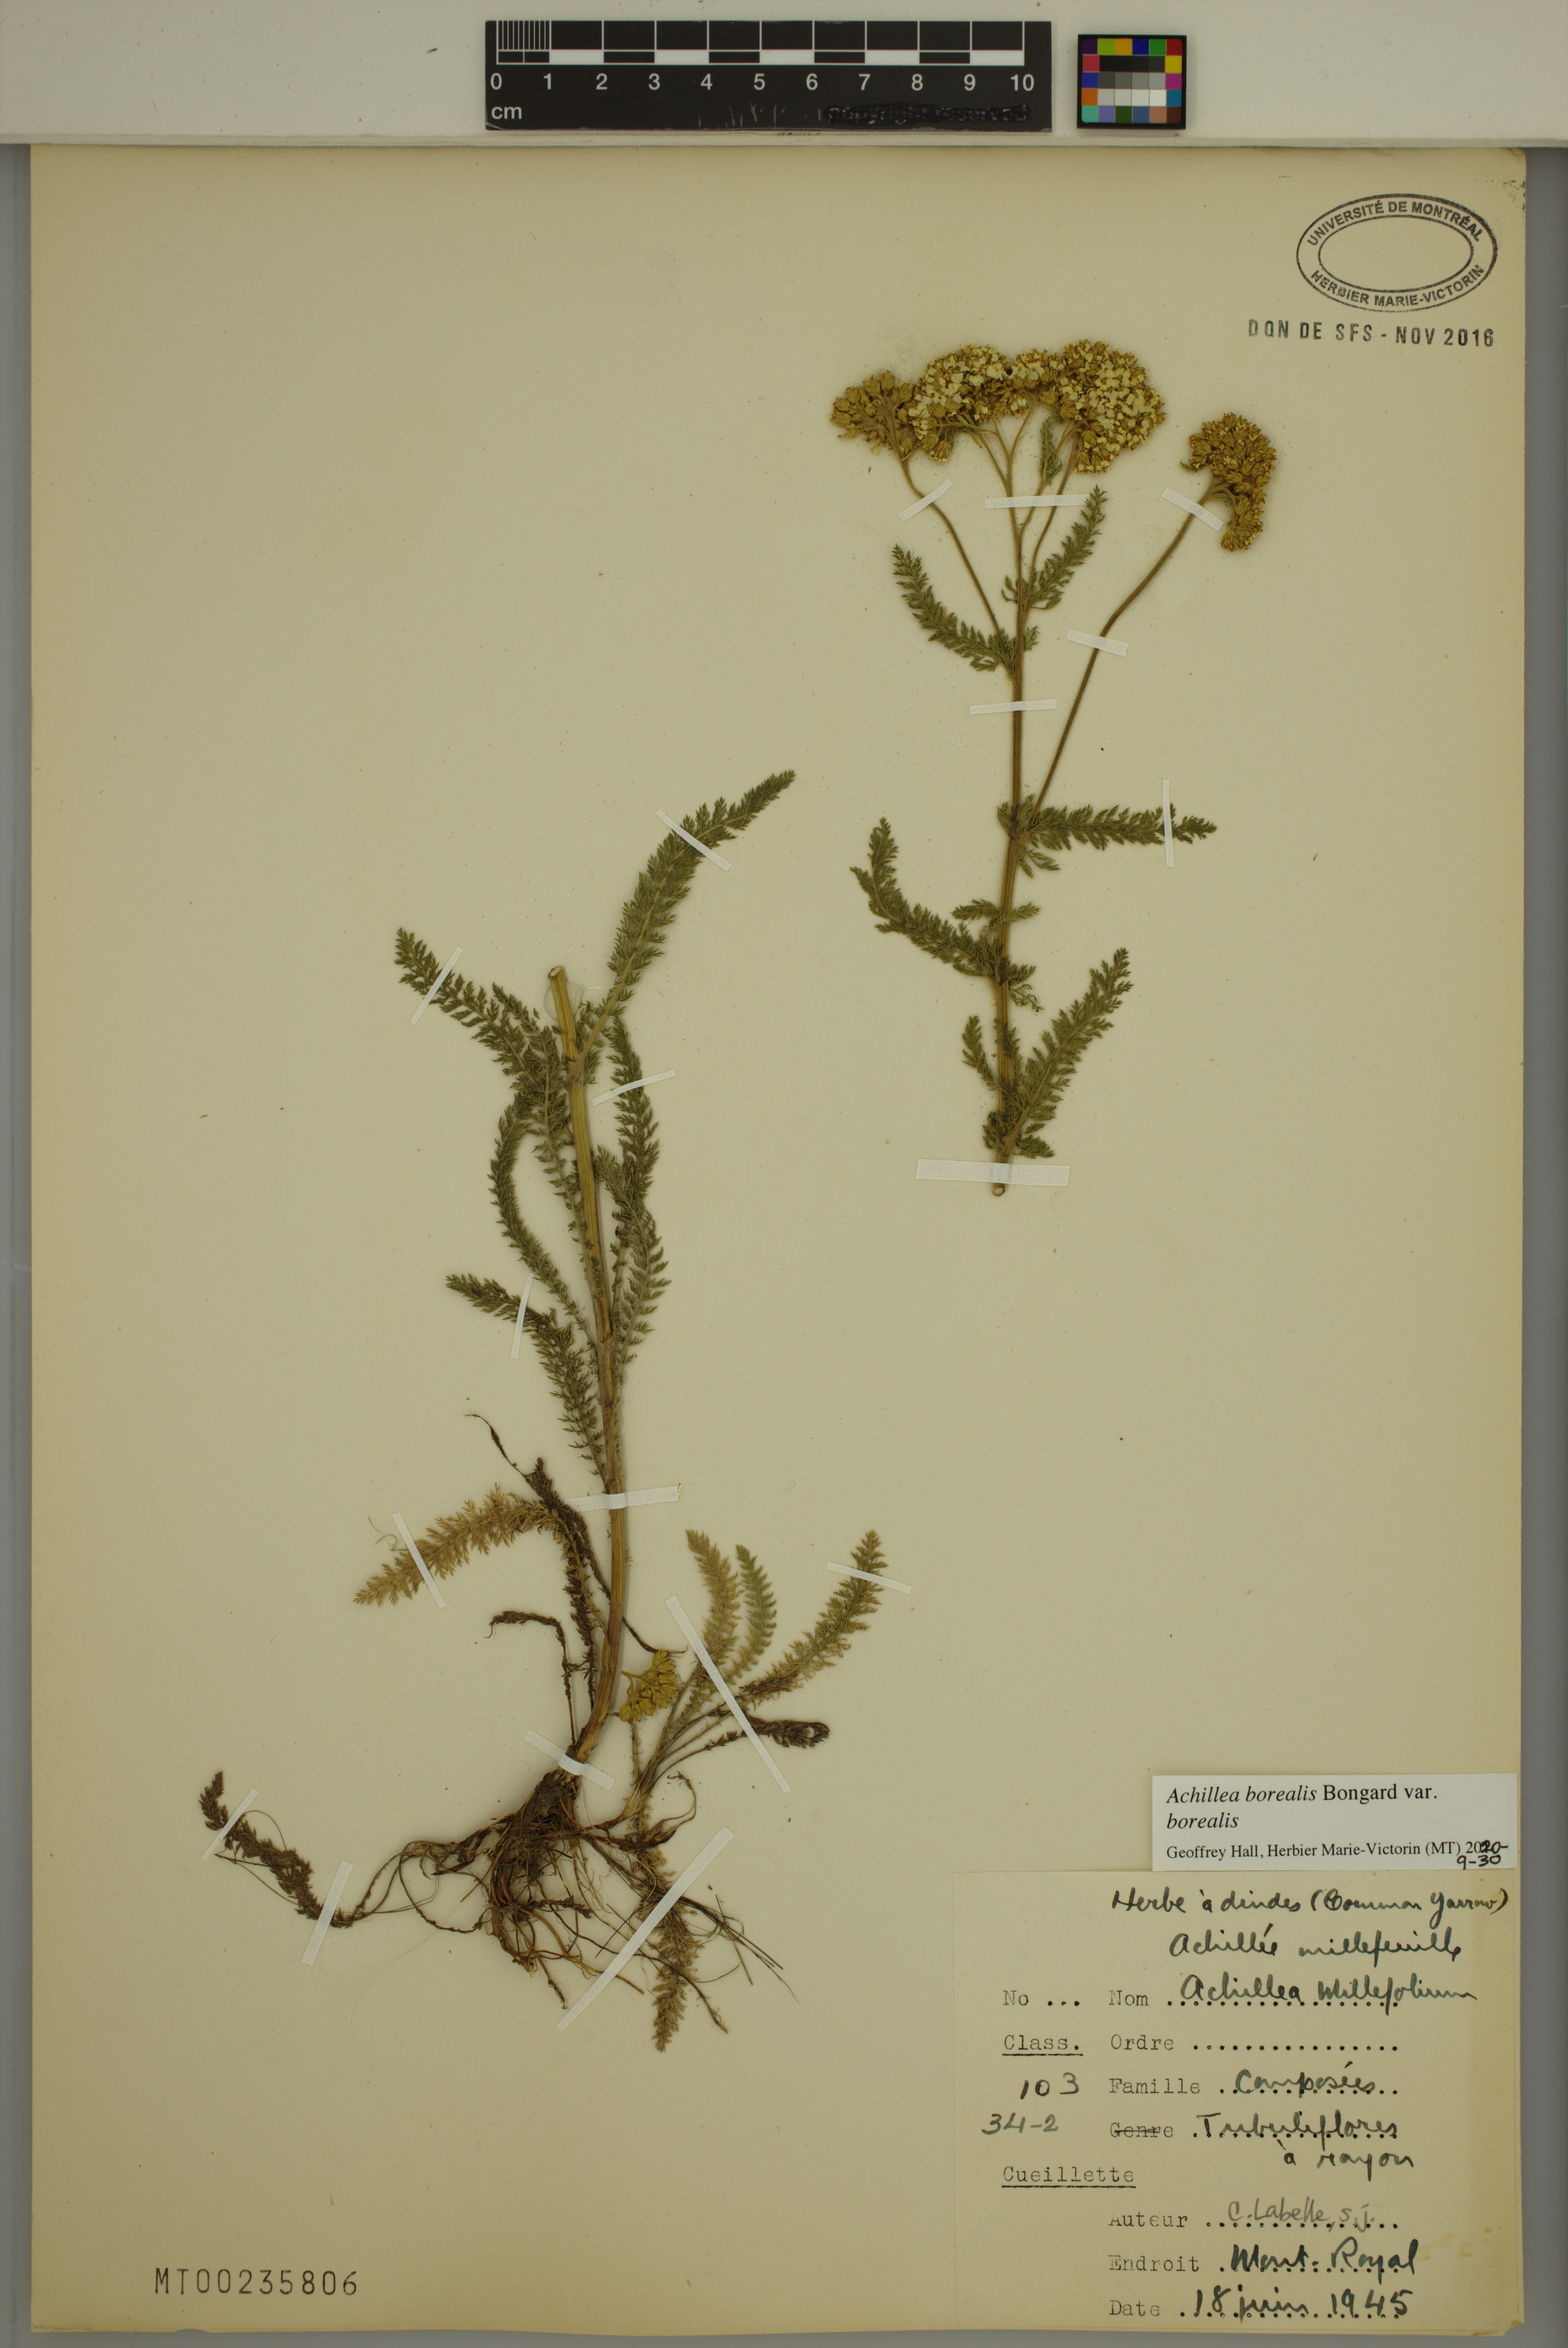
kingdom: Plantae
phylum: Tracheophyta
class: Magnoliopsida
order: Asterales
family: Asteraceae
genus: Achillea
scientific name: Achillea millefolium
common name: Yarrow
